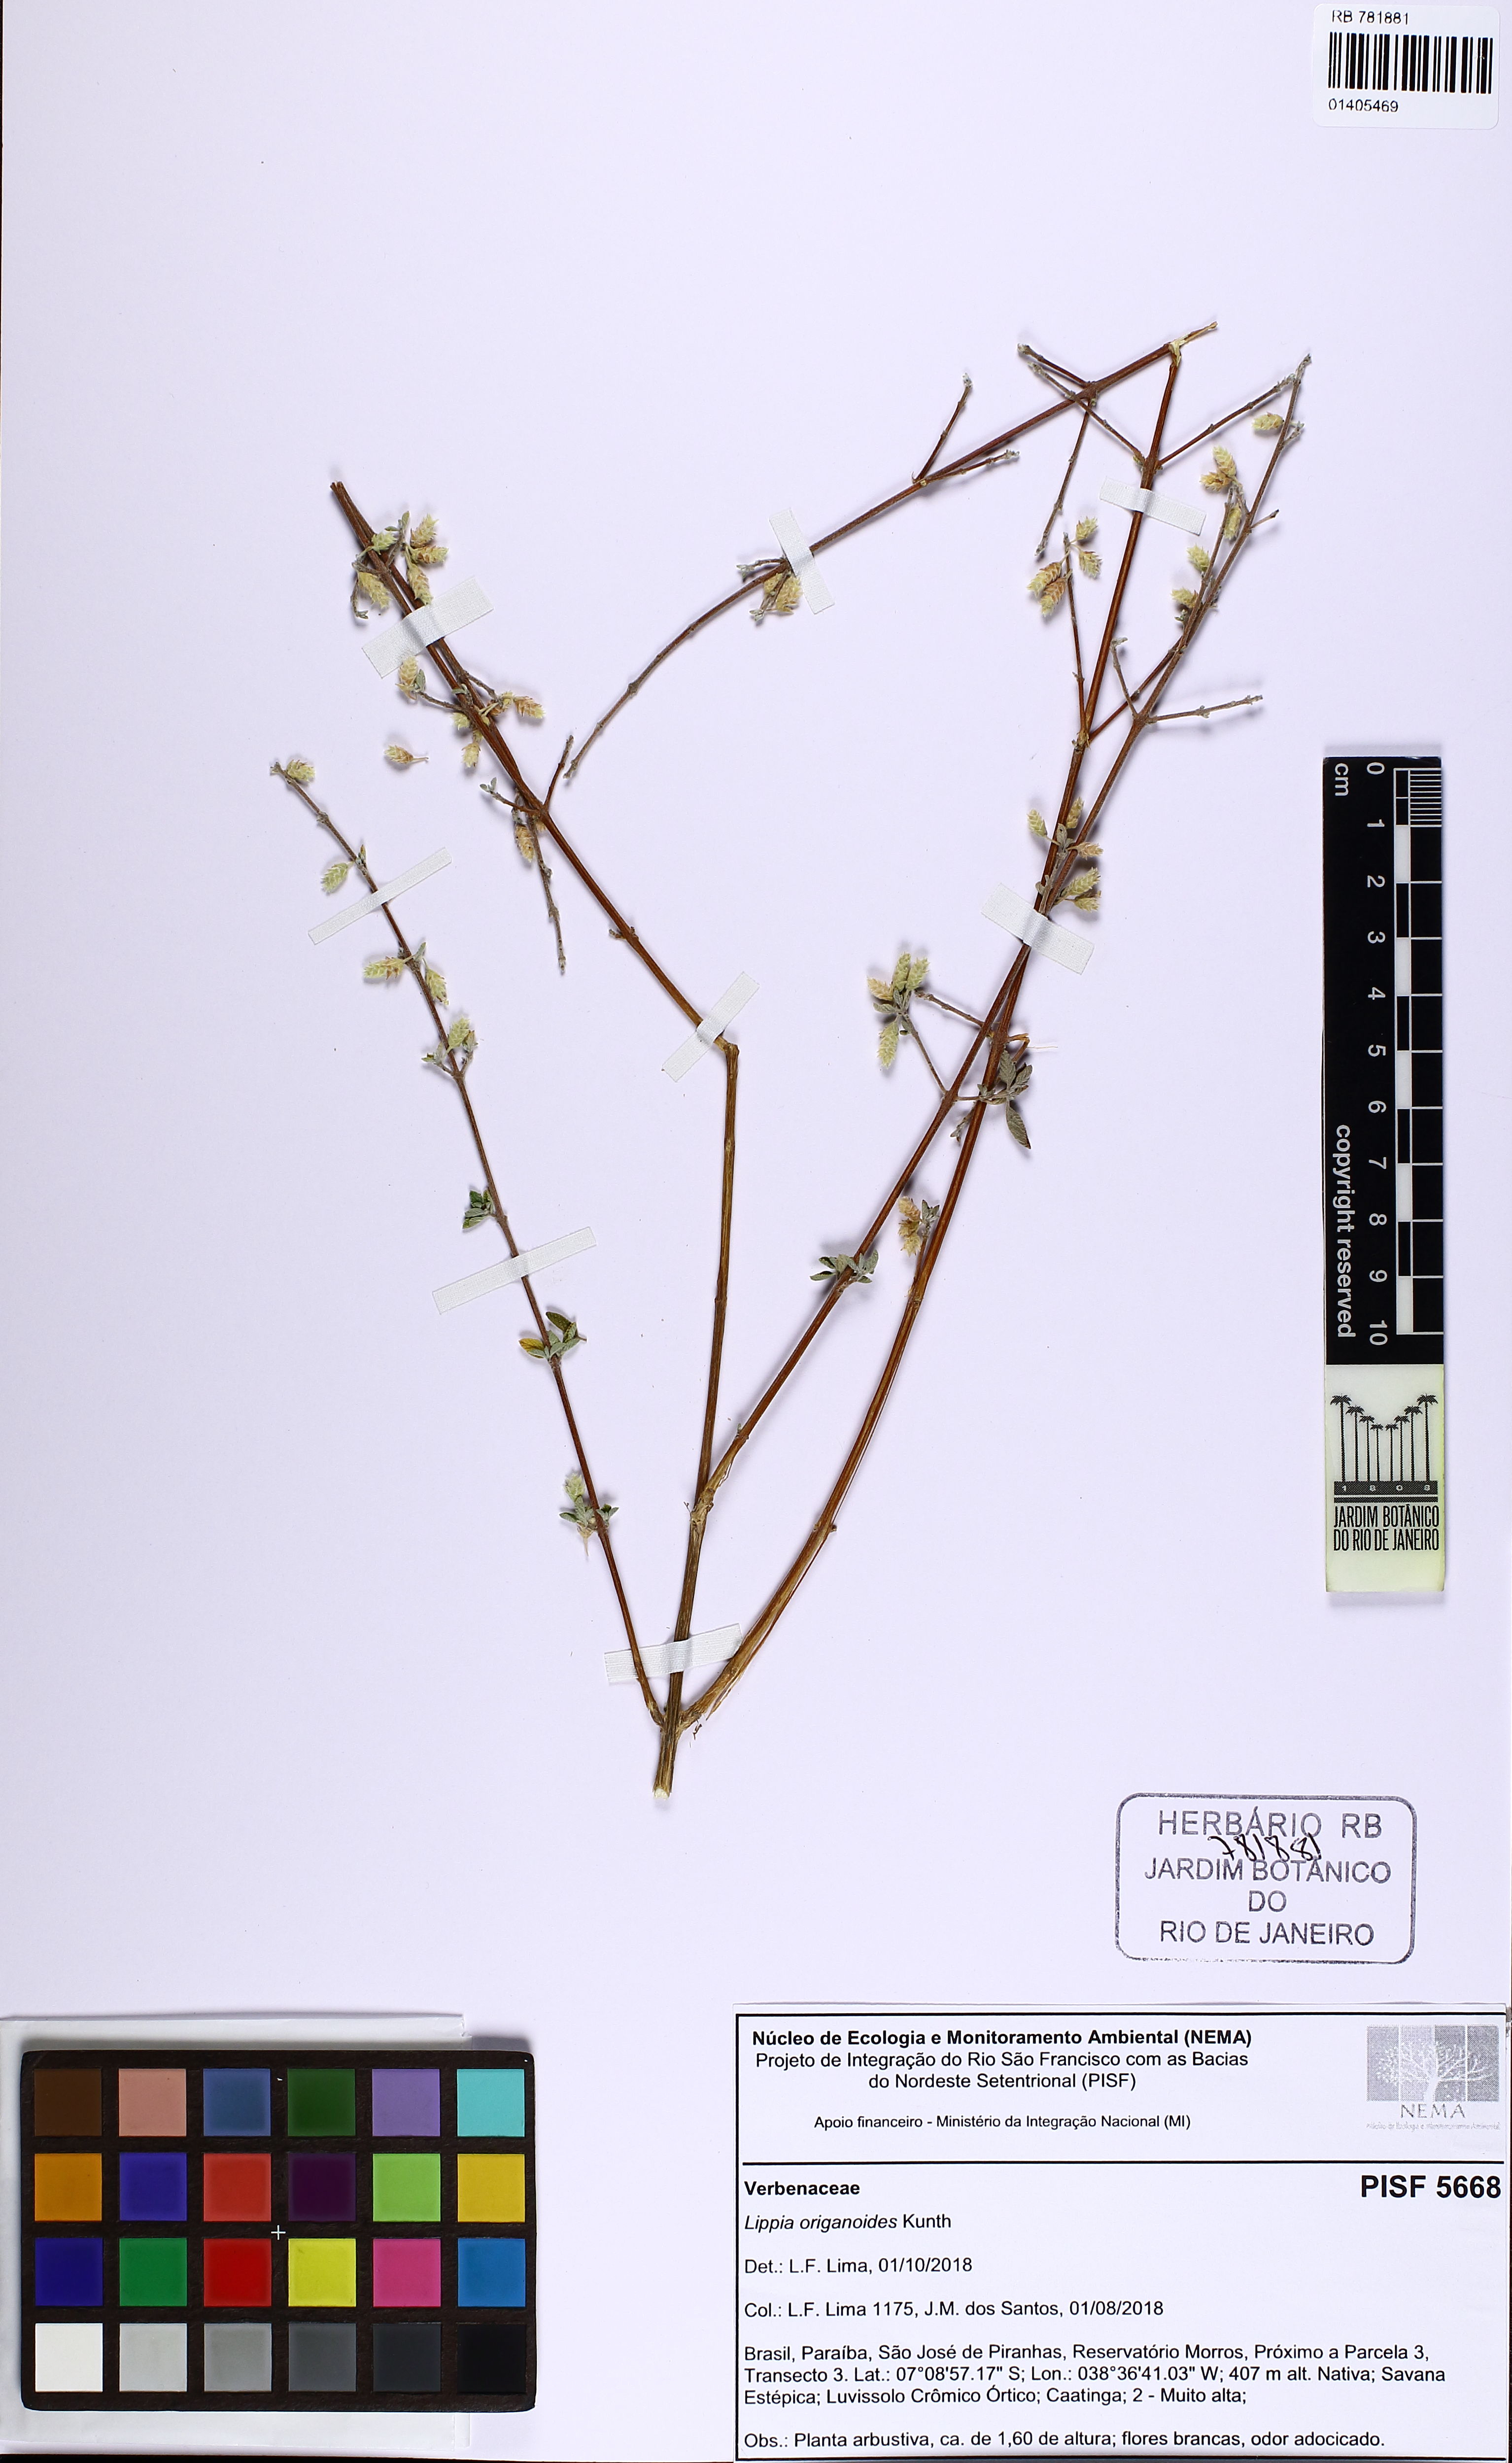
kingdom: Plantae
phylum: Tracheophyta
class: Magnoliopsida
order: Lamiales
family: Verbenaceae
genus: Lippia
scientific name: Lippia origanoides
